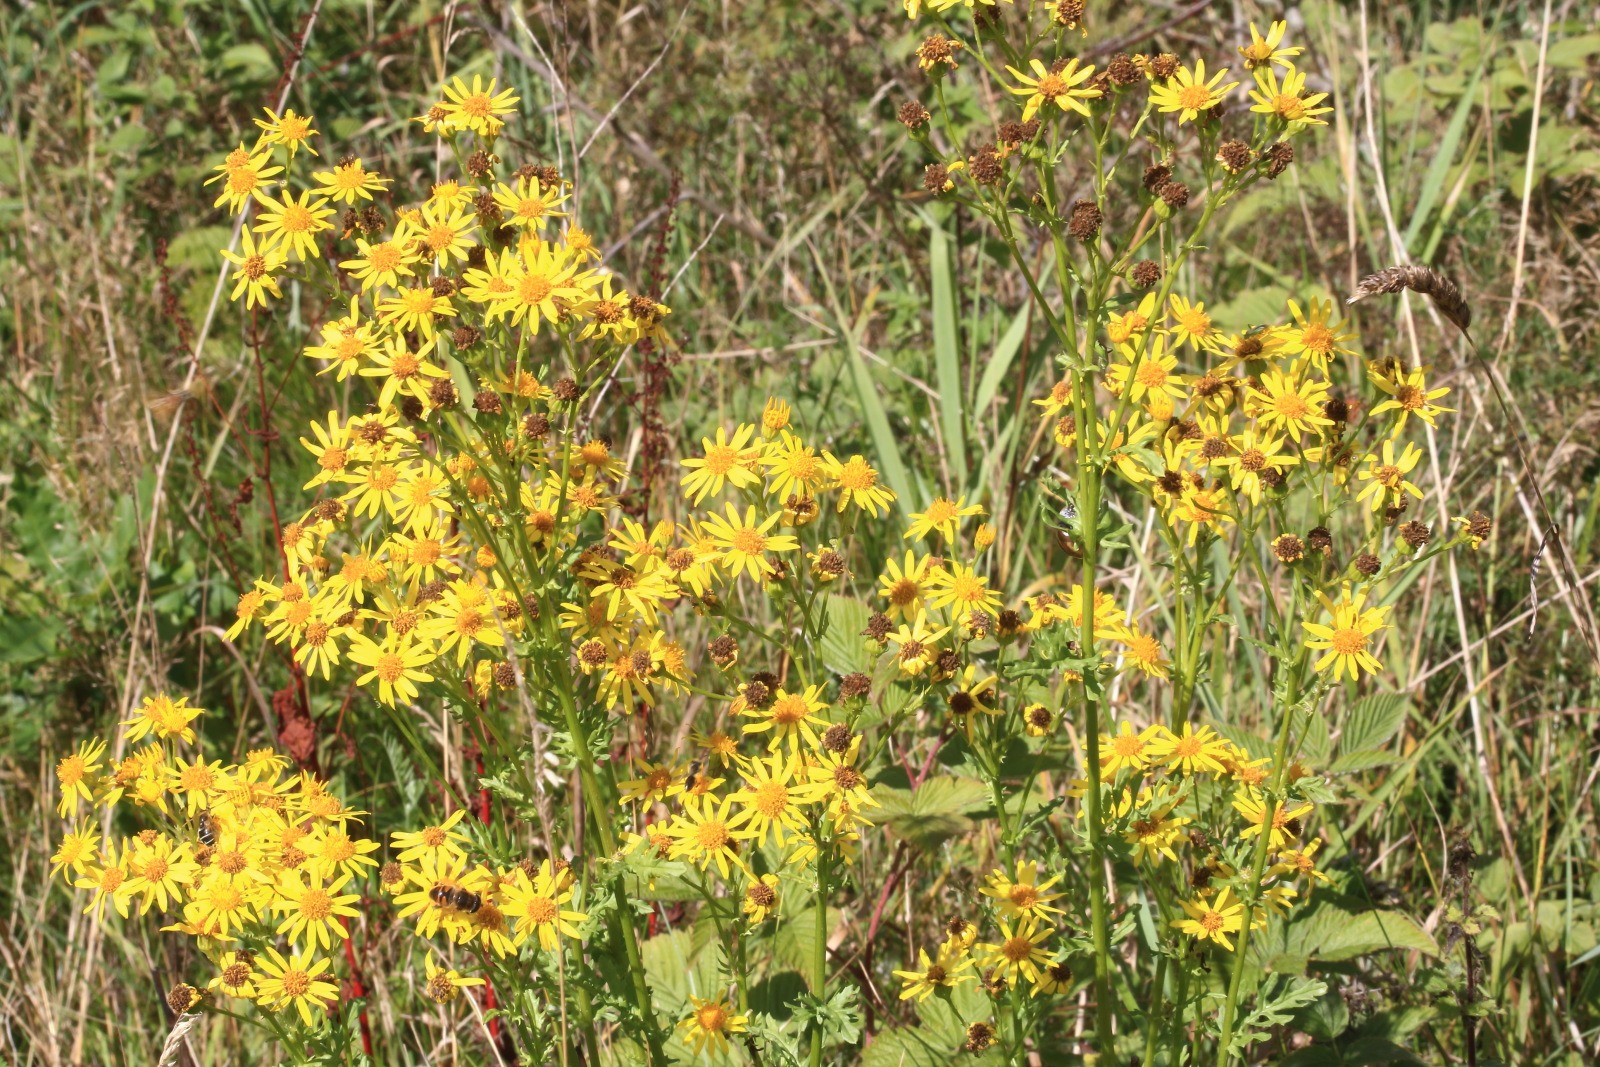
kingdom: Plantae
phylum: Tracheophyta
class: Magnoliopsida
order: Asterales
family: Asteraceae
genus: Jacobaea
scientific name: Jacobaea vulgaris
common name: Eng-brandbæger
